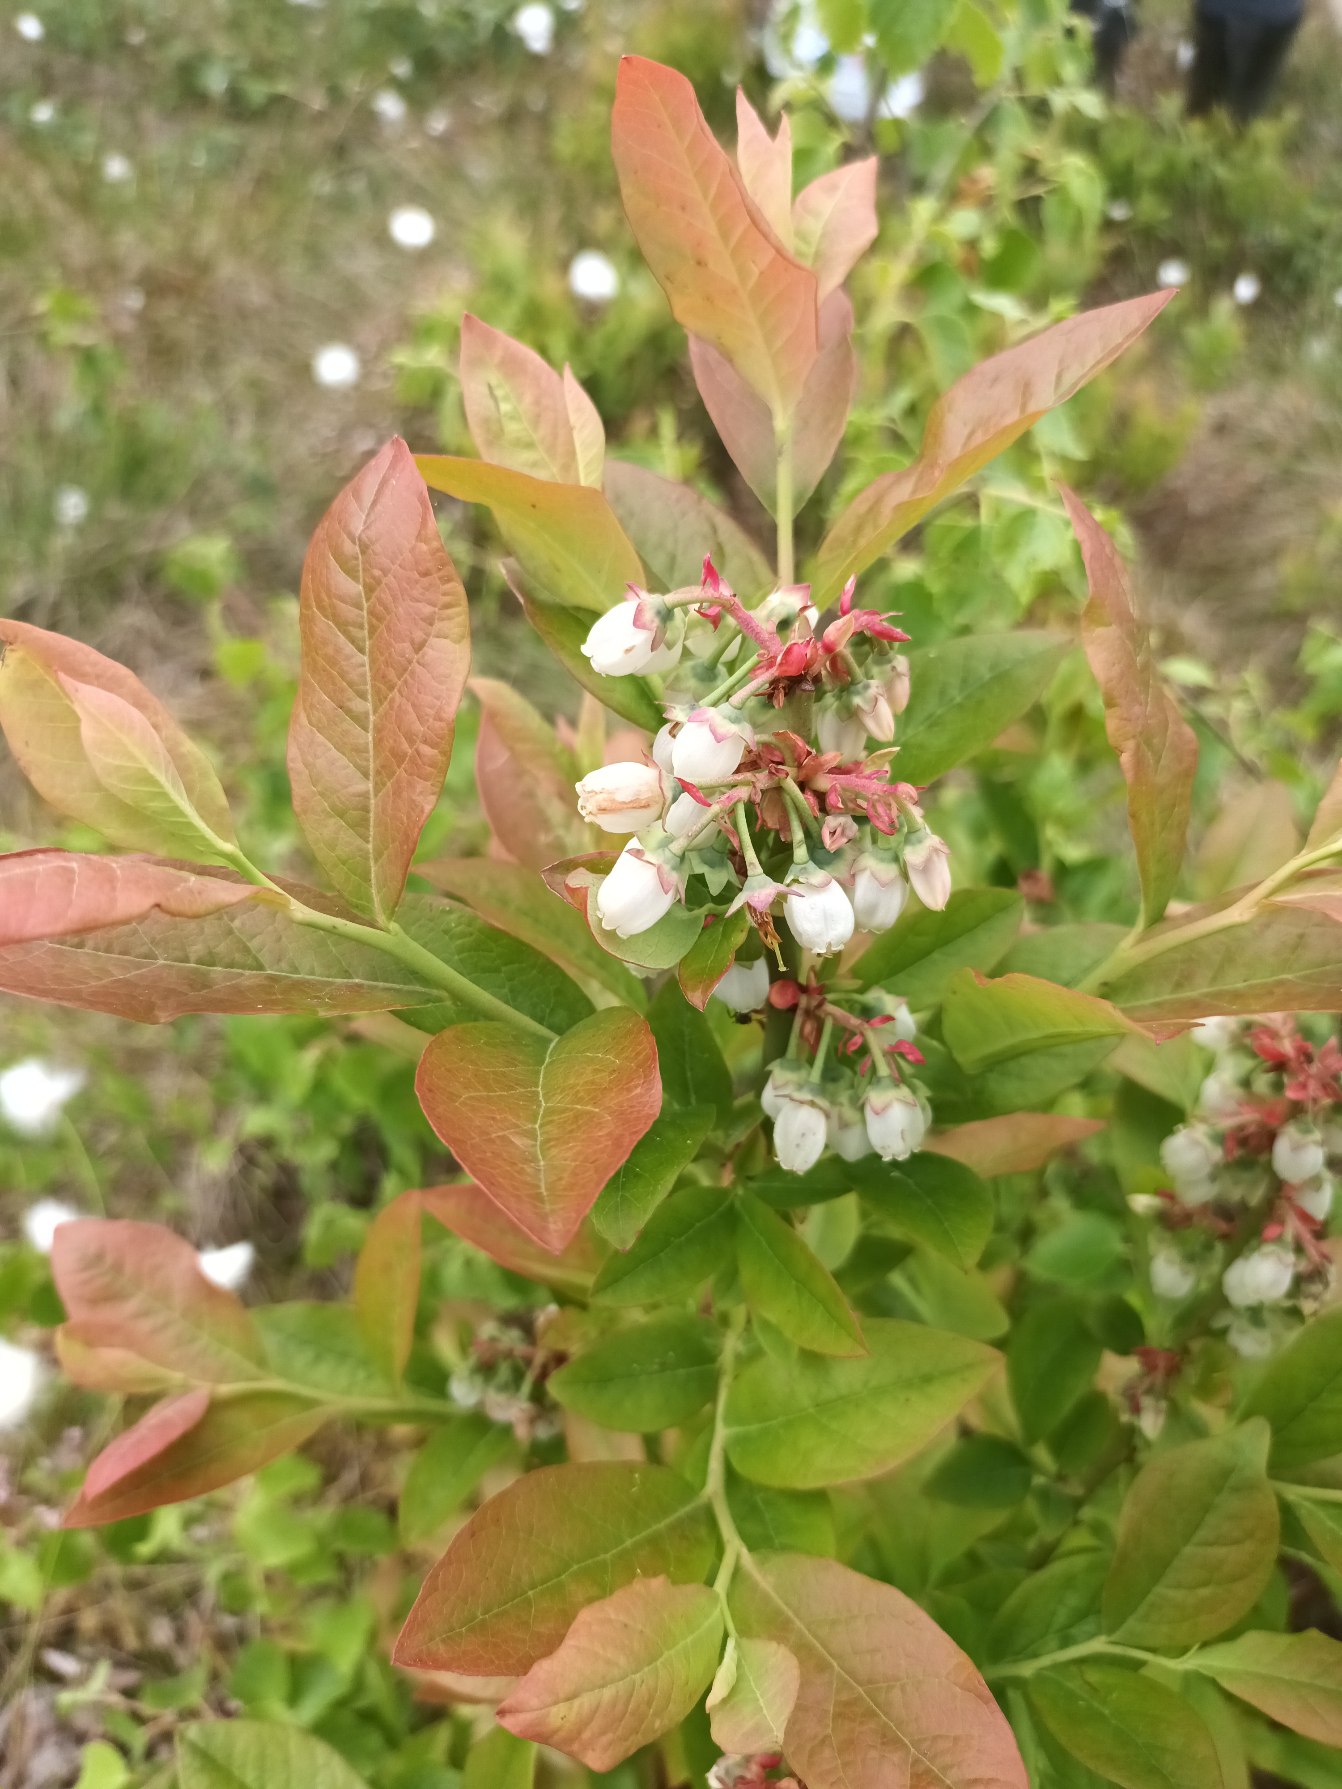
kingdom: Plantae
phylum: Tracheophyta
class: Magnoliopsida
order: Ericales
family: Ericaceae
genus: Vaccinium
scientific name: Vaccinium corymbosum
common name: Amerikansk blåbær
